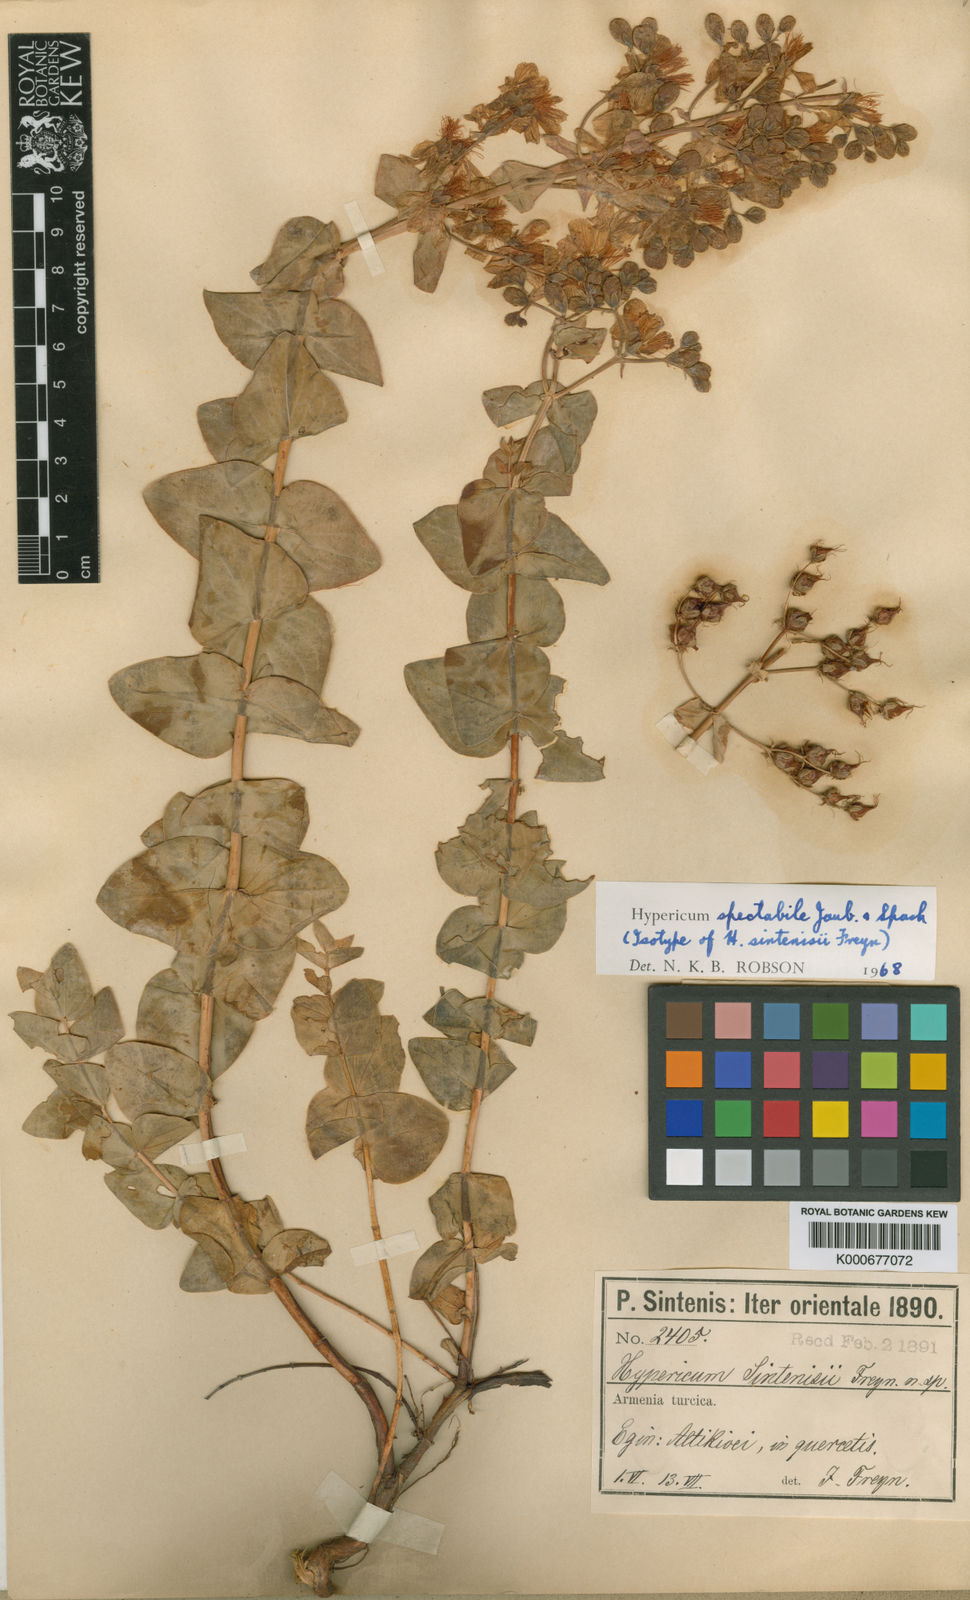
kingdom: Plantae
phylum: Tracheophyta
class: Magnoliopsida
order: Malpighiales
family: Hypericaceae
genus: Hypericum
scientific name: Hypericum spectabile
